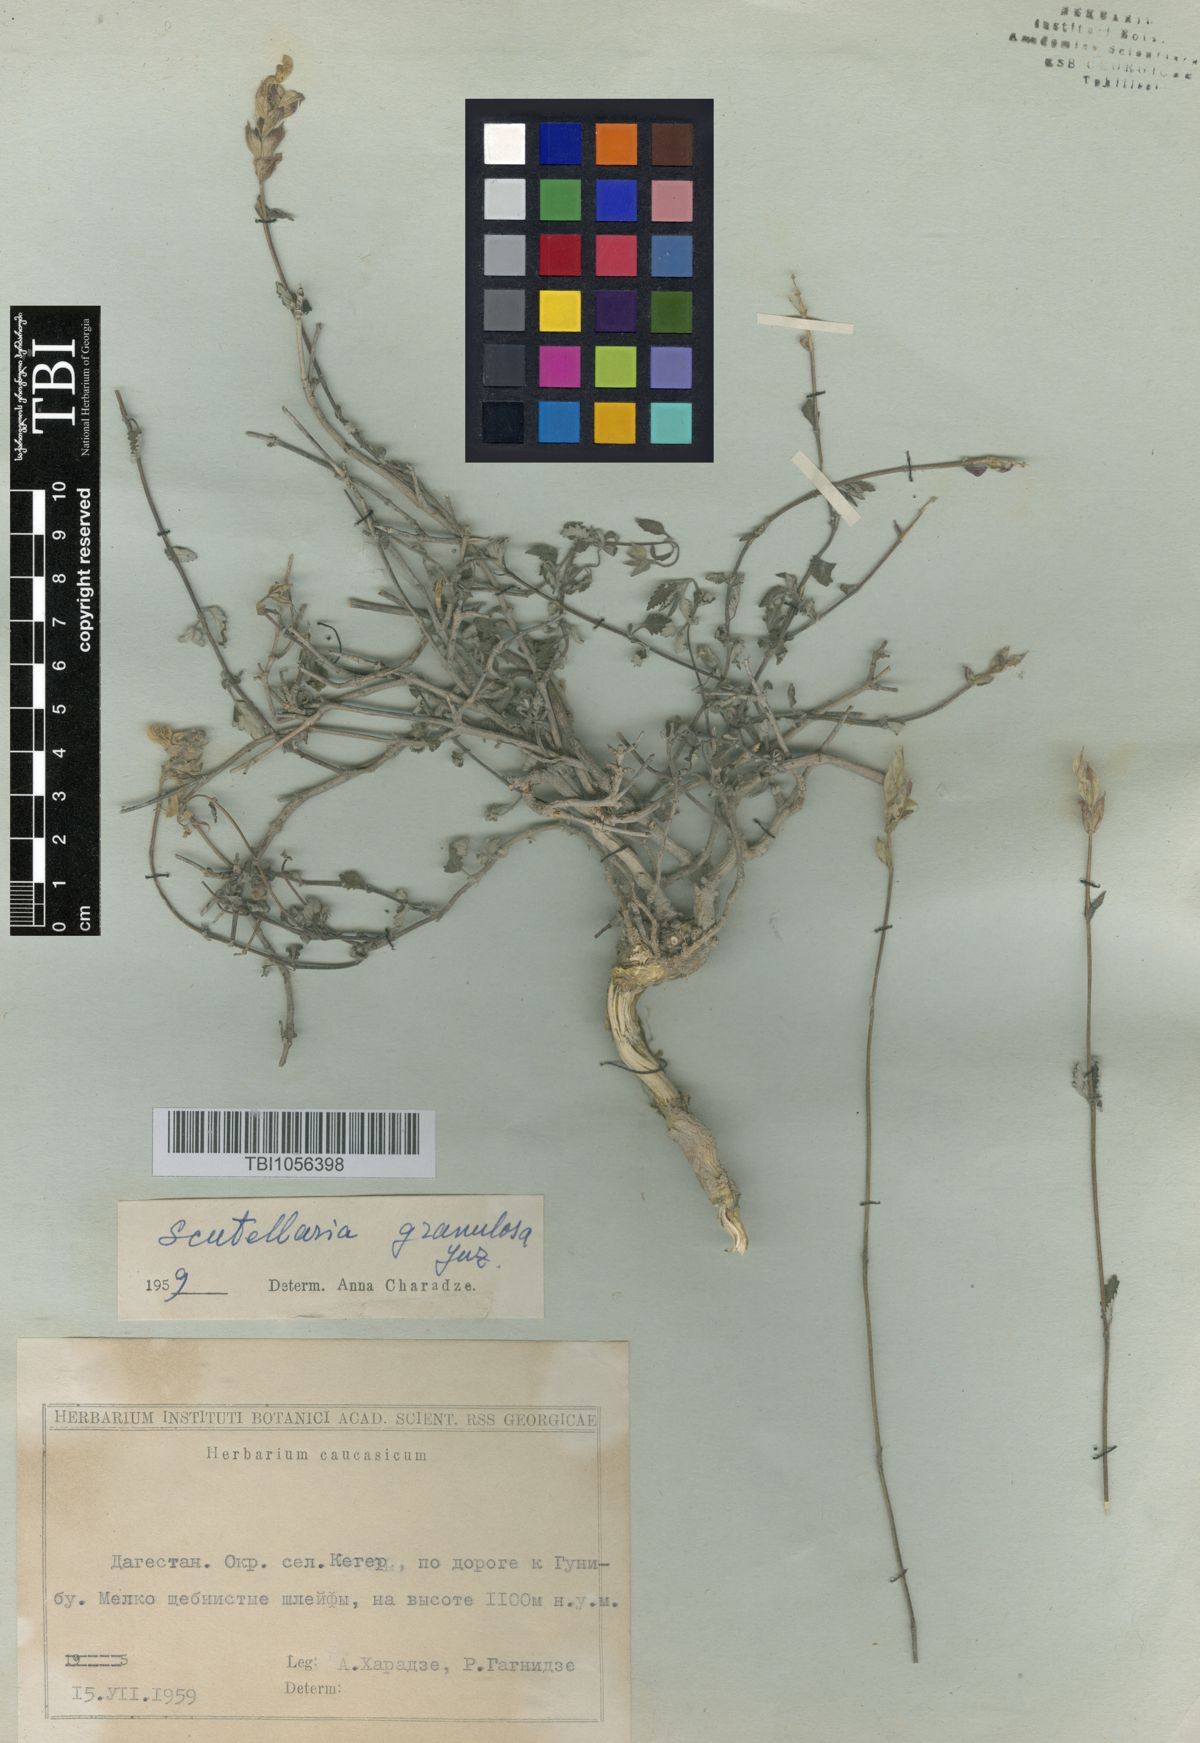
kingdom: Plantae
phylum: Tracheophyta
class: Magnoliopsida
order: Lamiales
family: Lamiaceae
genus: Scutellaria
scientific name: Scutellaria granulosa
